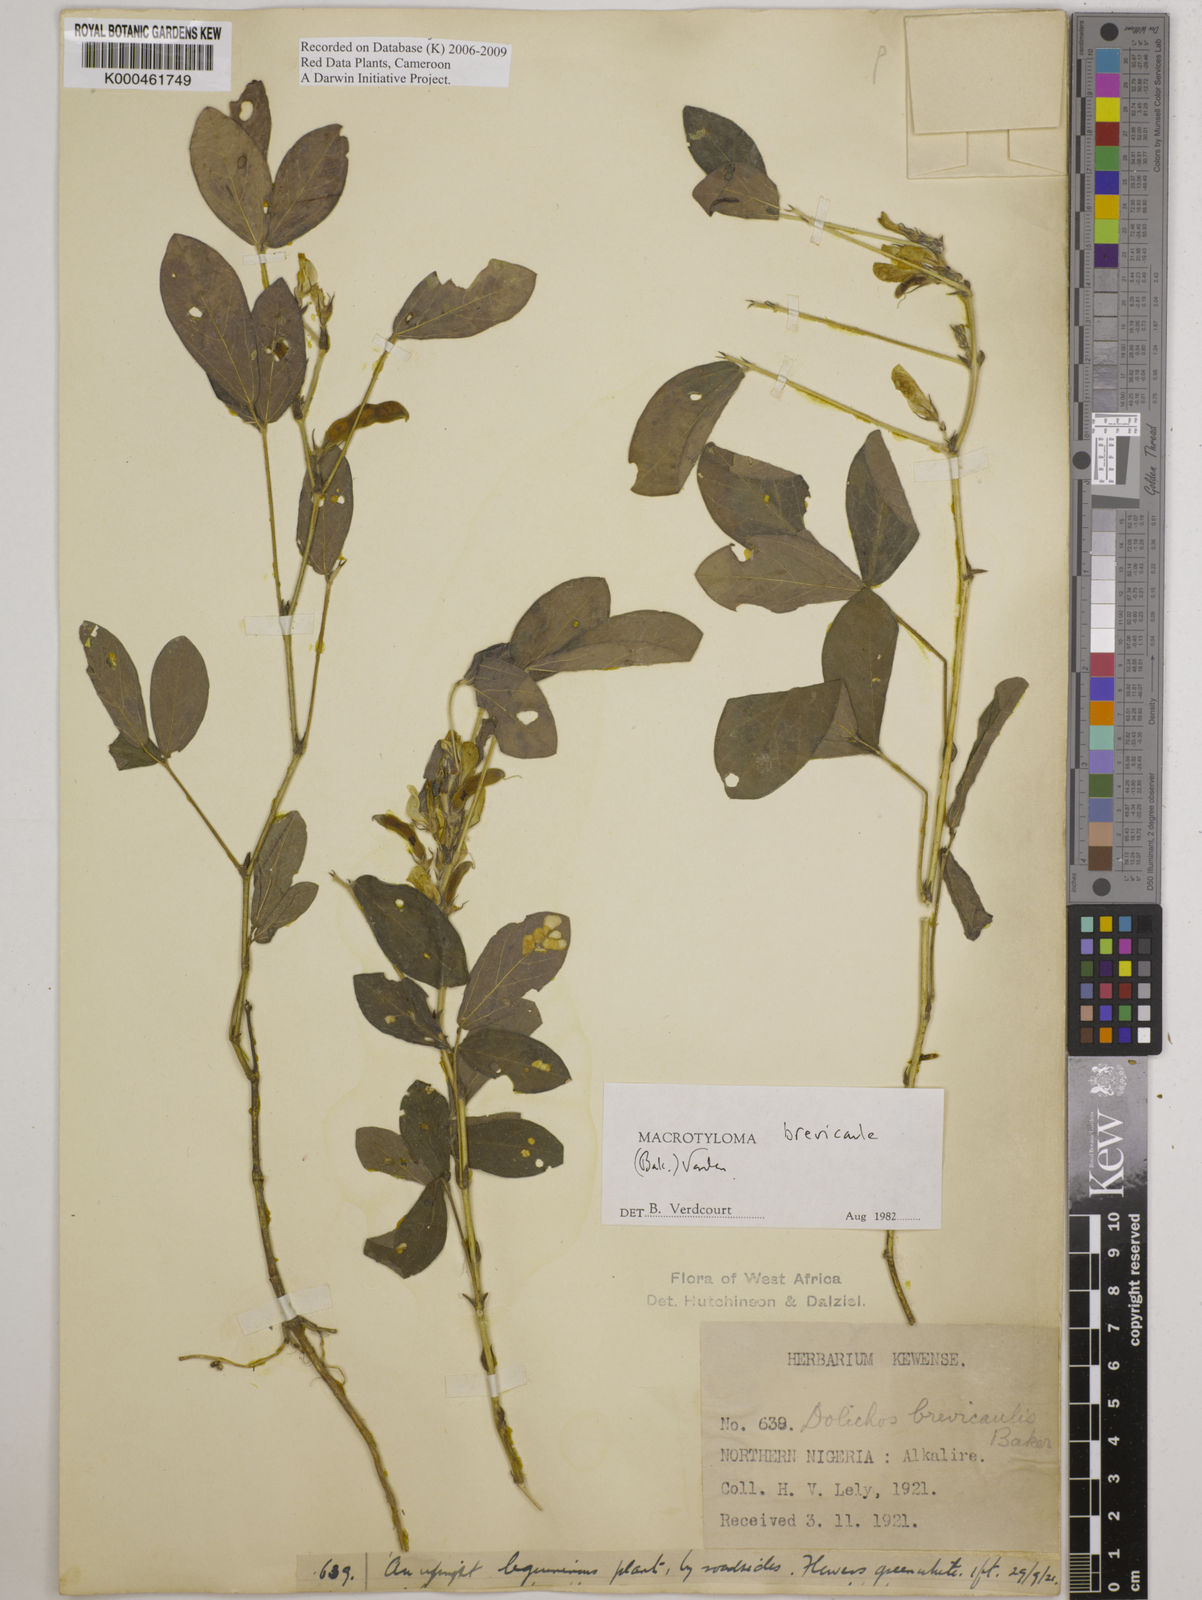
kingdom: Plantae
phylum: Tracheophyta
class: Magnoliopsida
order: Fabales
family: Fabaceae
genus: Macrotyloma
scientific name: Macrotyloma brevicaule
